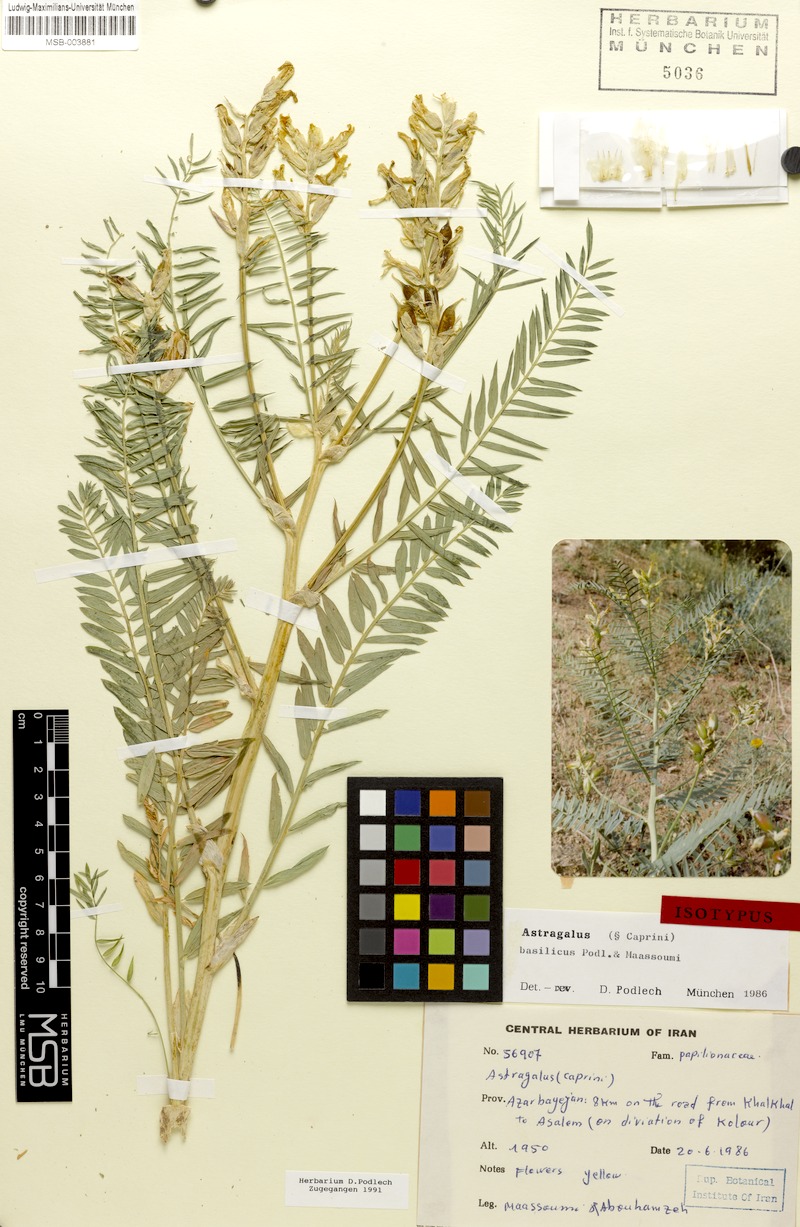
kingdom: Plantae
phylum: Tracheophyta
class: Magnoliopsida
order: Fabales
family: Fabaceae
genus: Astragalus
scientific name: Astragalus basilicus
